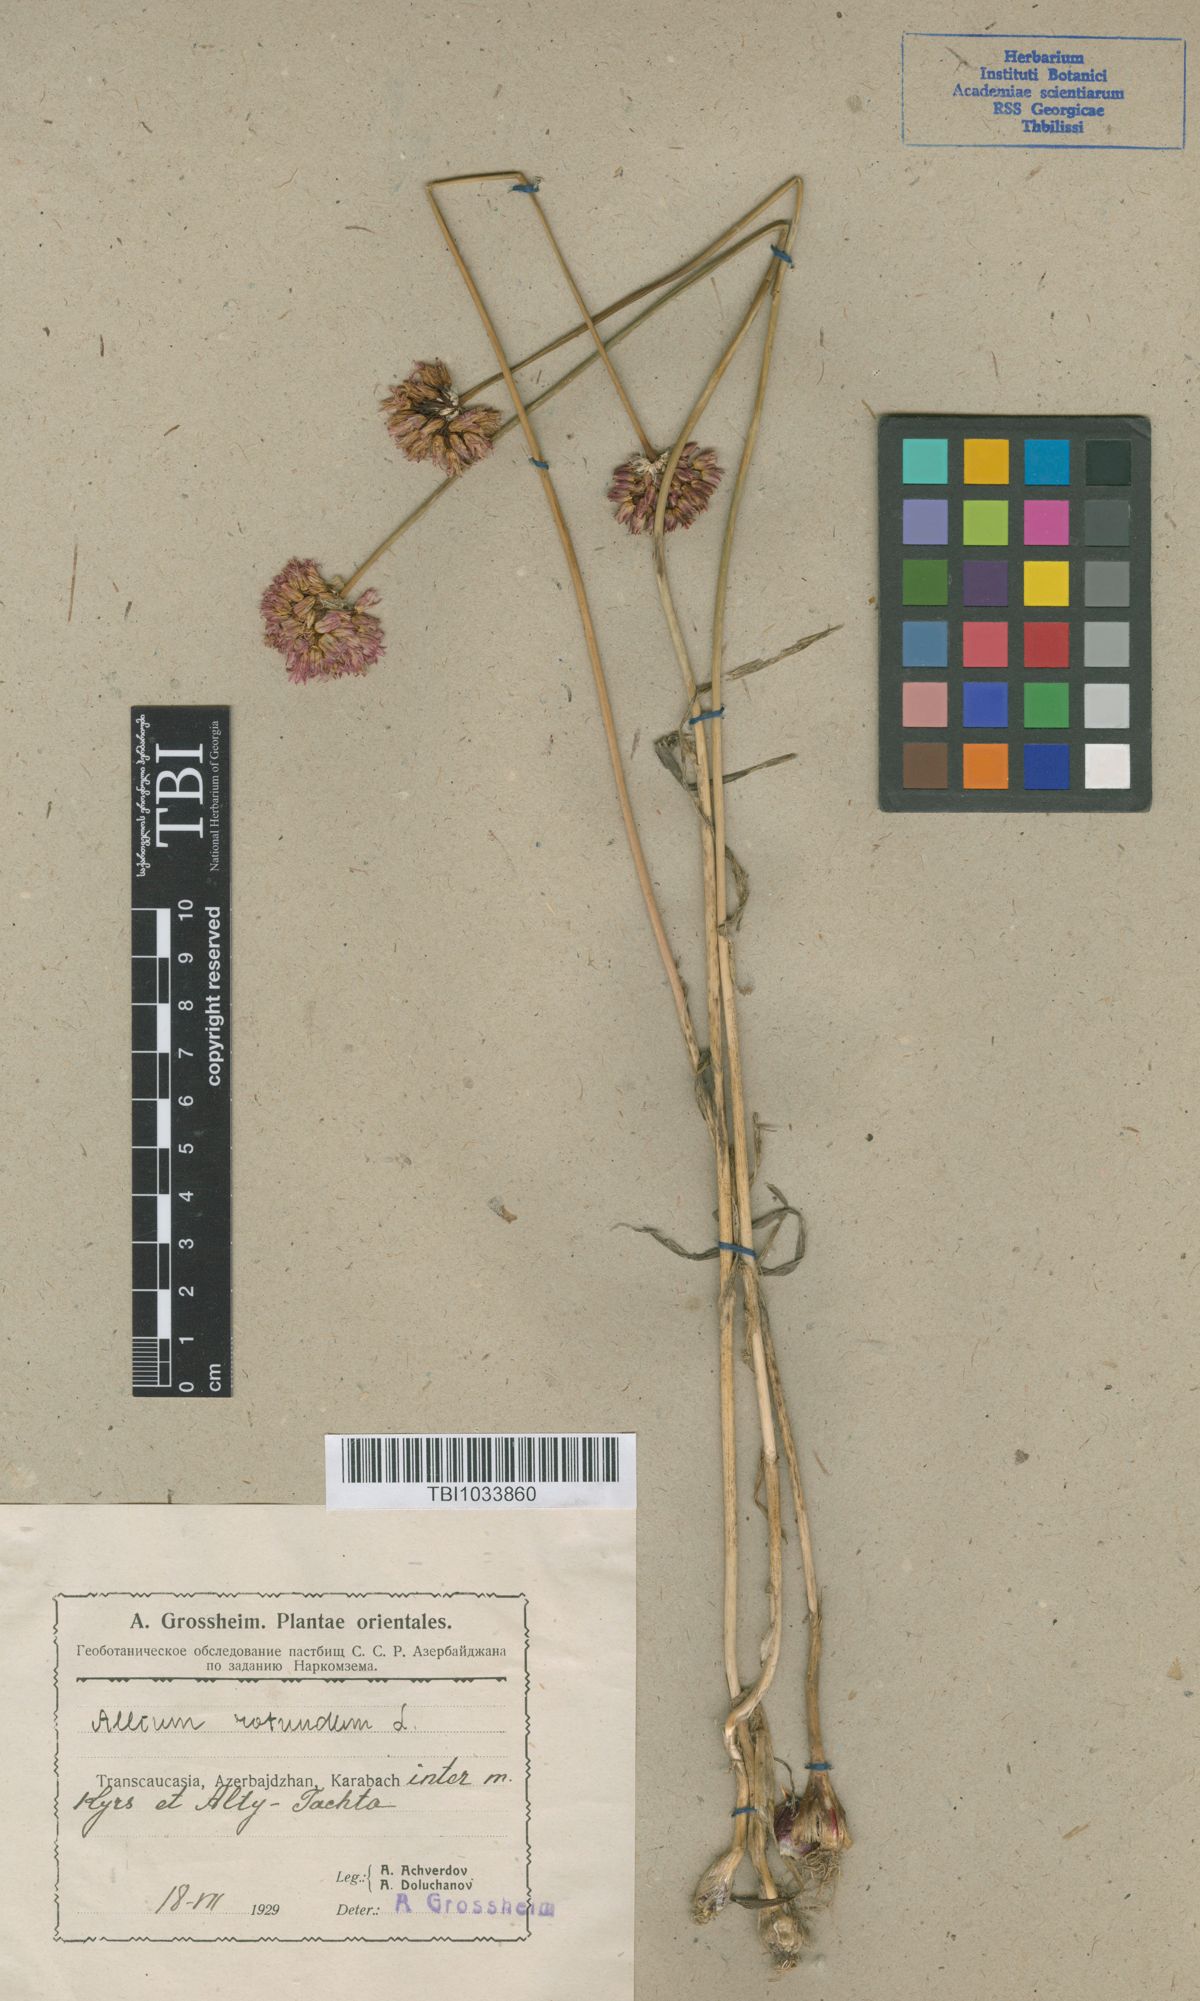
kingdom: Plantae
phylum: Tracheophyta
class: Liliopsida
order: Asparagales
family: Amaryllidaceae
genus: Allium
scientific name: Allium rotundum
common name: Sand leek
